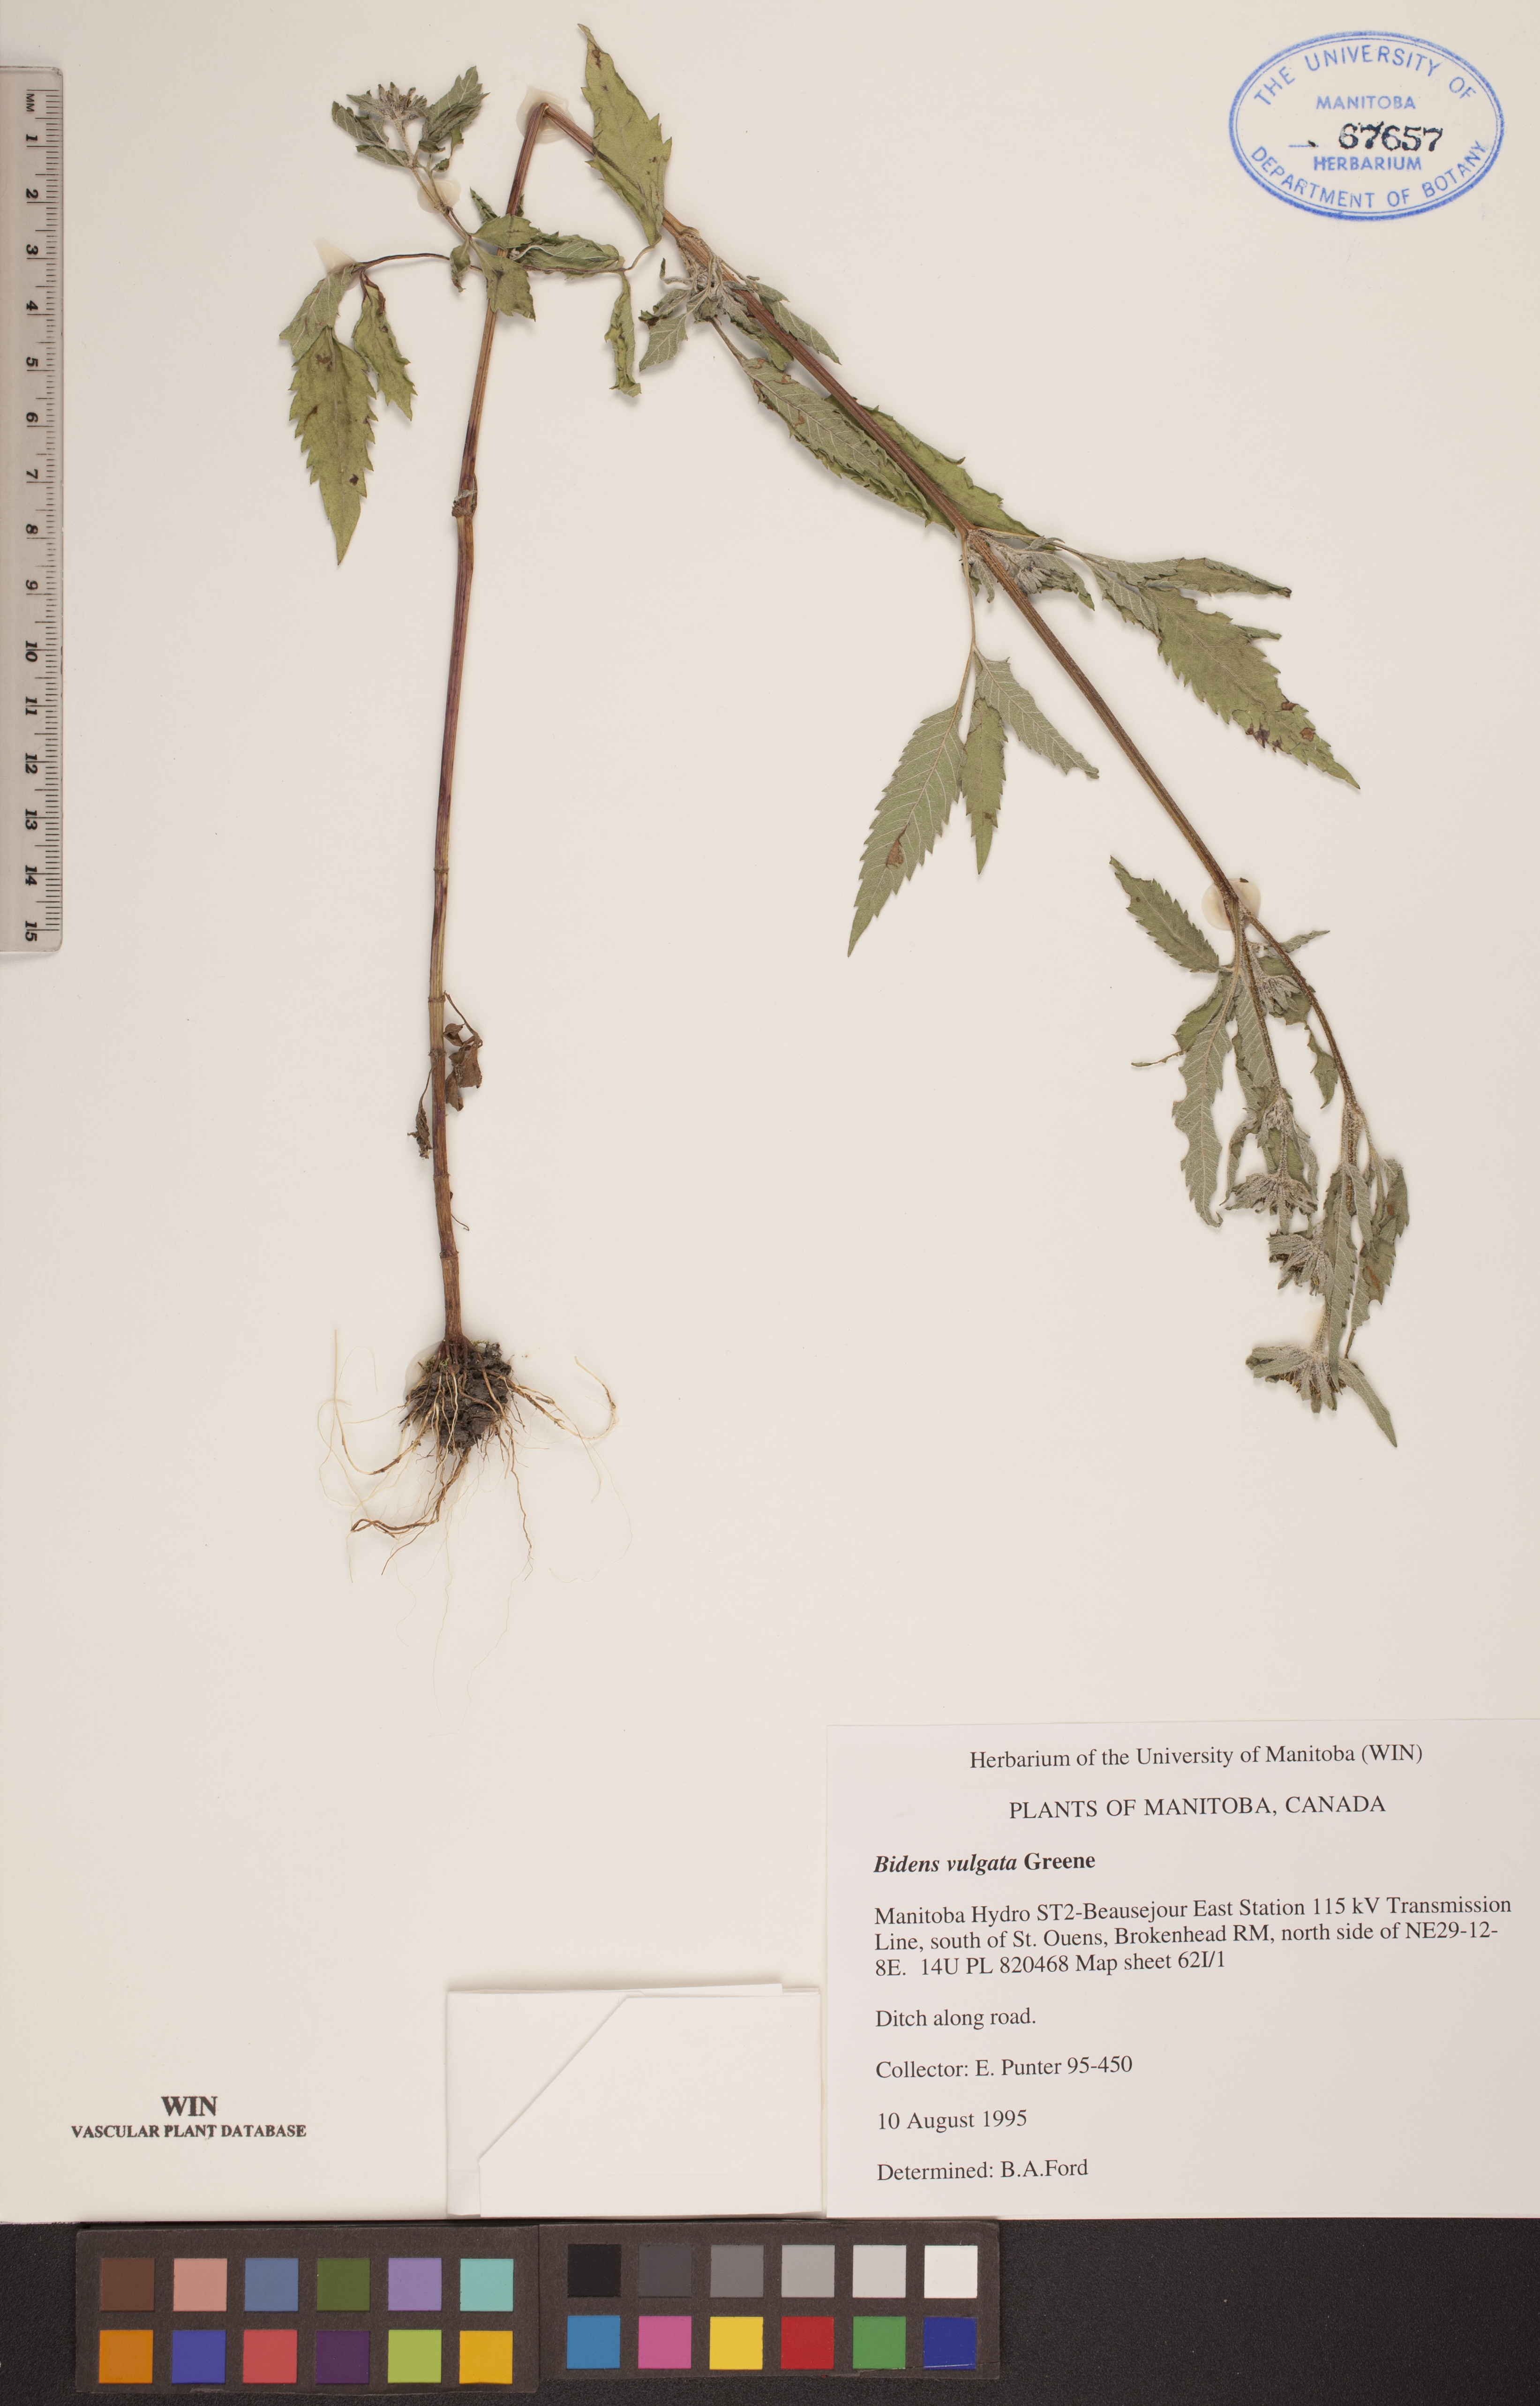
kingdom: Plantae
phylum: Tracheophyta
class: Magnoliopsida
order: Asterales
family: Asteraceae
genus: Bidens
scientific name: Bidens vulgata
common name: Tall beggarticks
